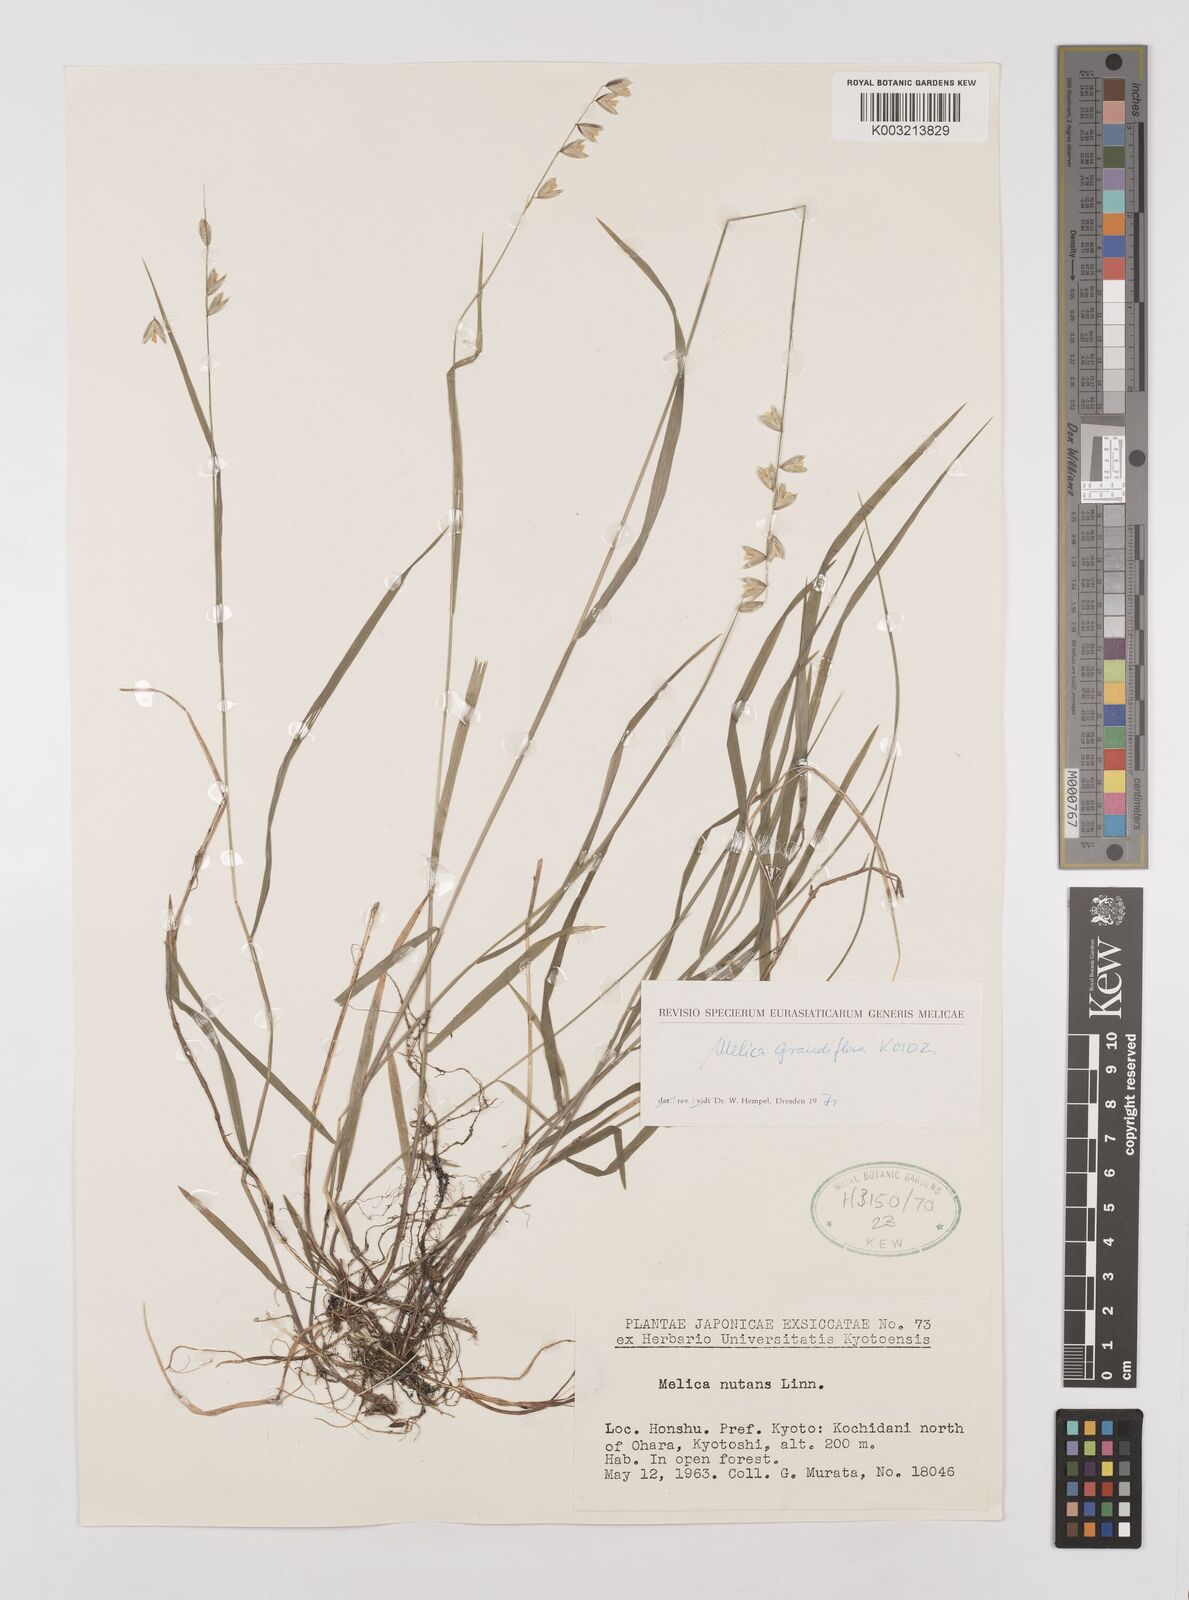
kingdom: Plantae
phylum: Tracheophyta
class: Liliopsida
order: Poales
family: Poaceae
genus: Melica
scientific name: Melica nutans
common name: Mountain melick
